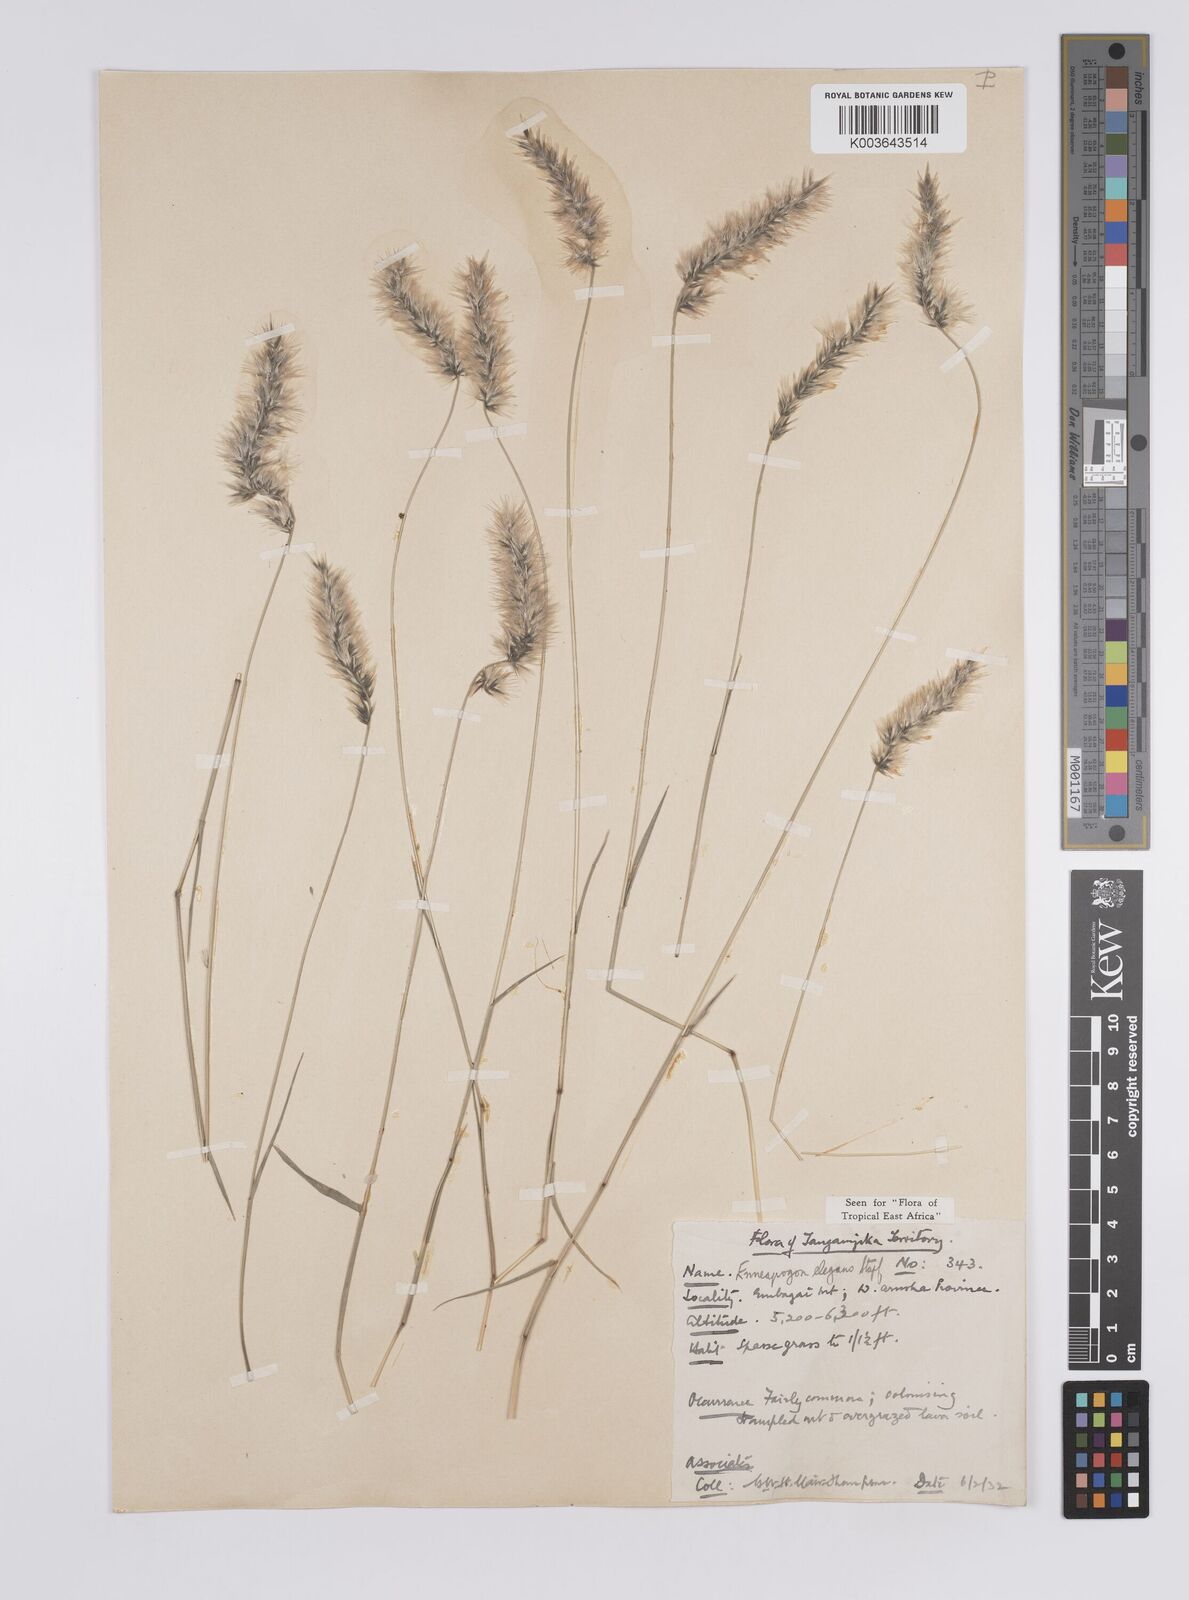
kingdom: Plantae
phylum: Tracheophyta
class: Liliopsida
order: Poales
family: Poaceae
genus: Enneapogon
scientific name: Enneapogon persicus
